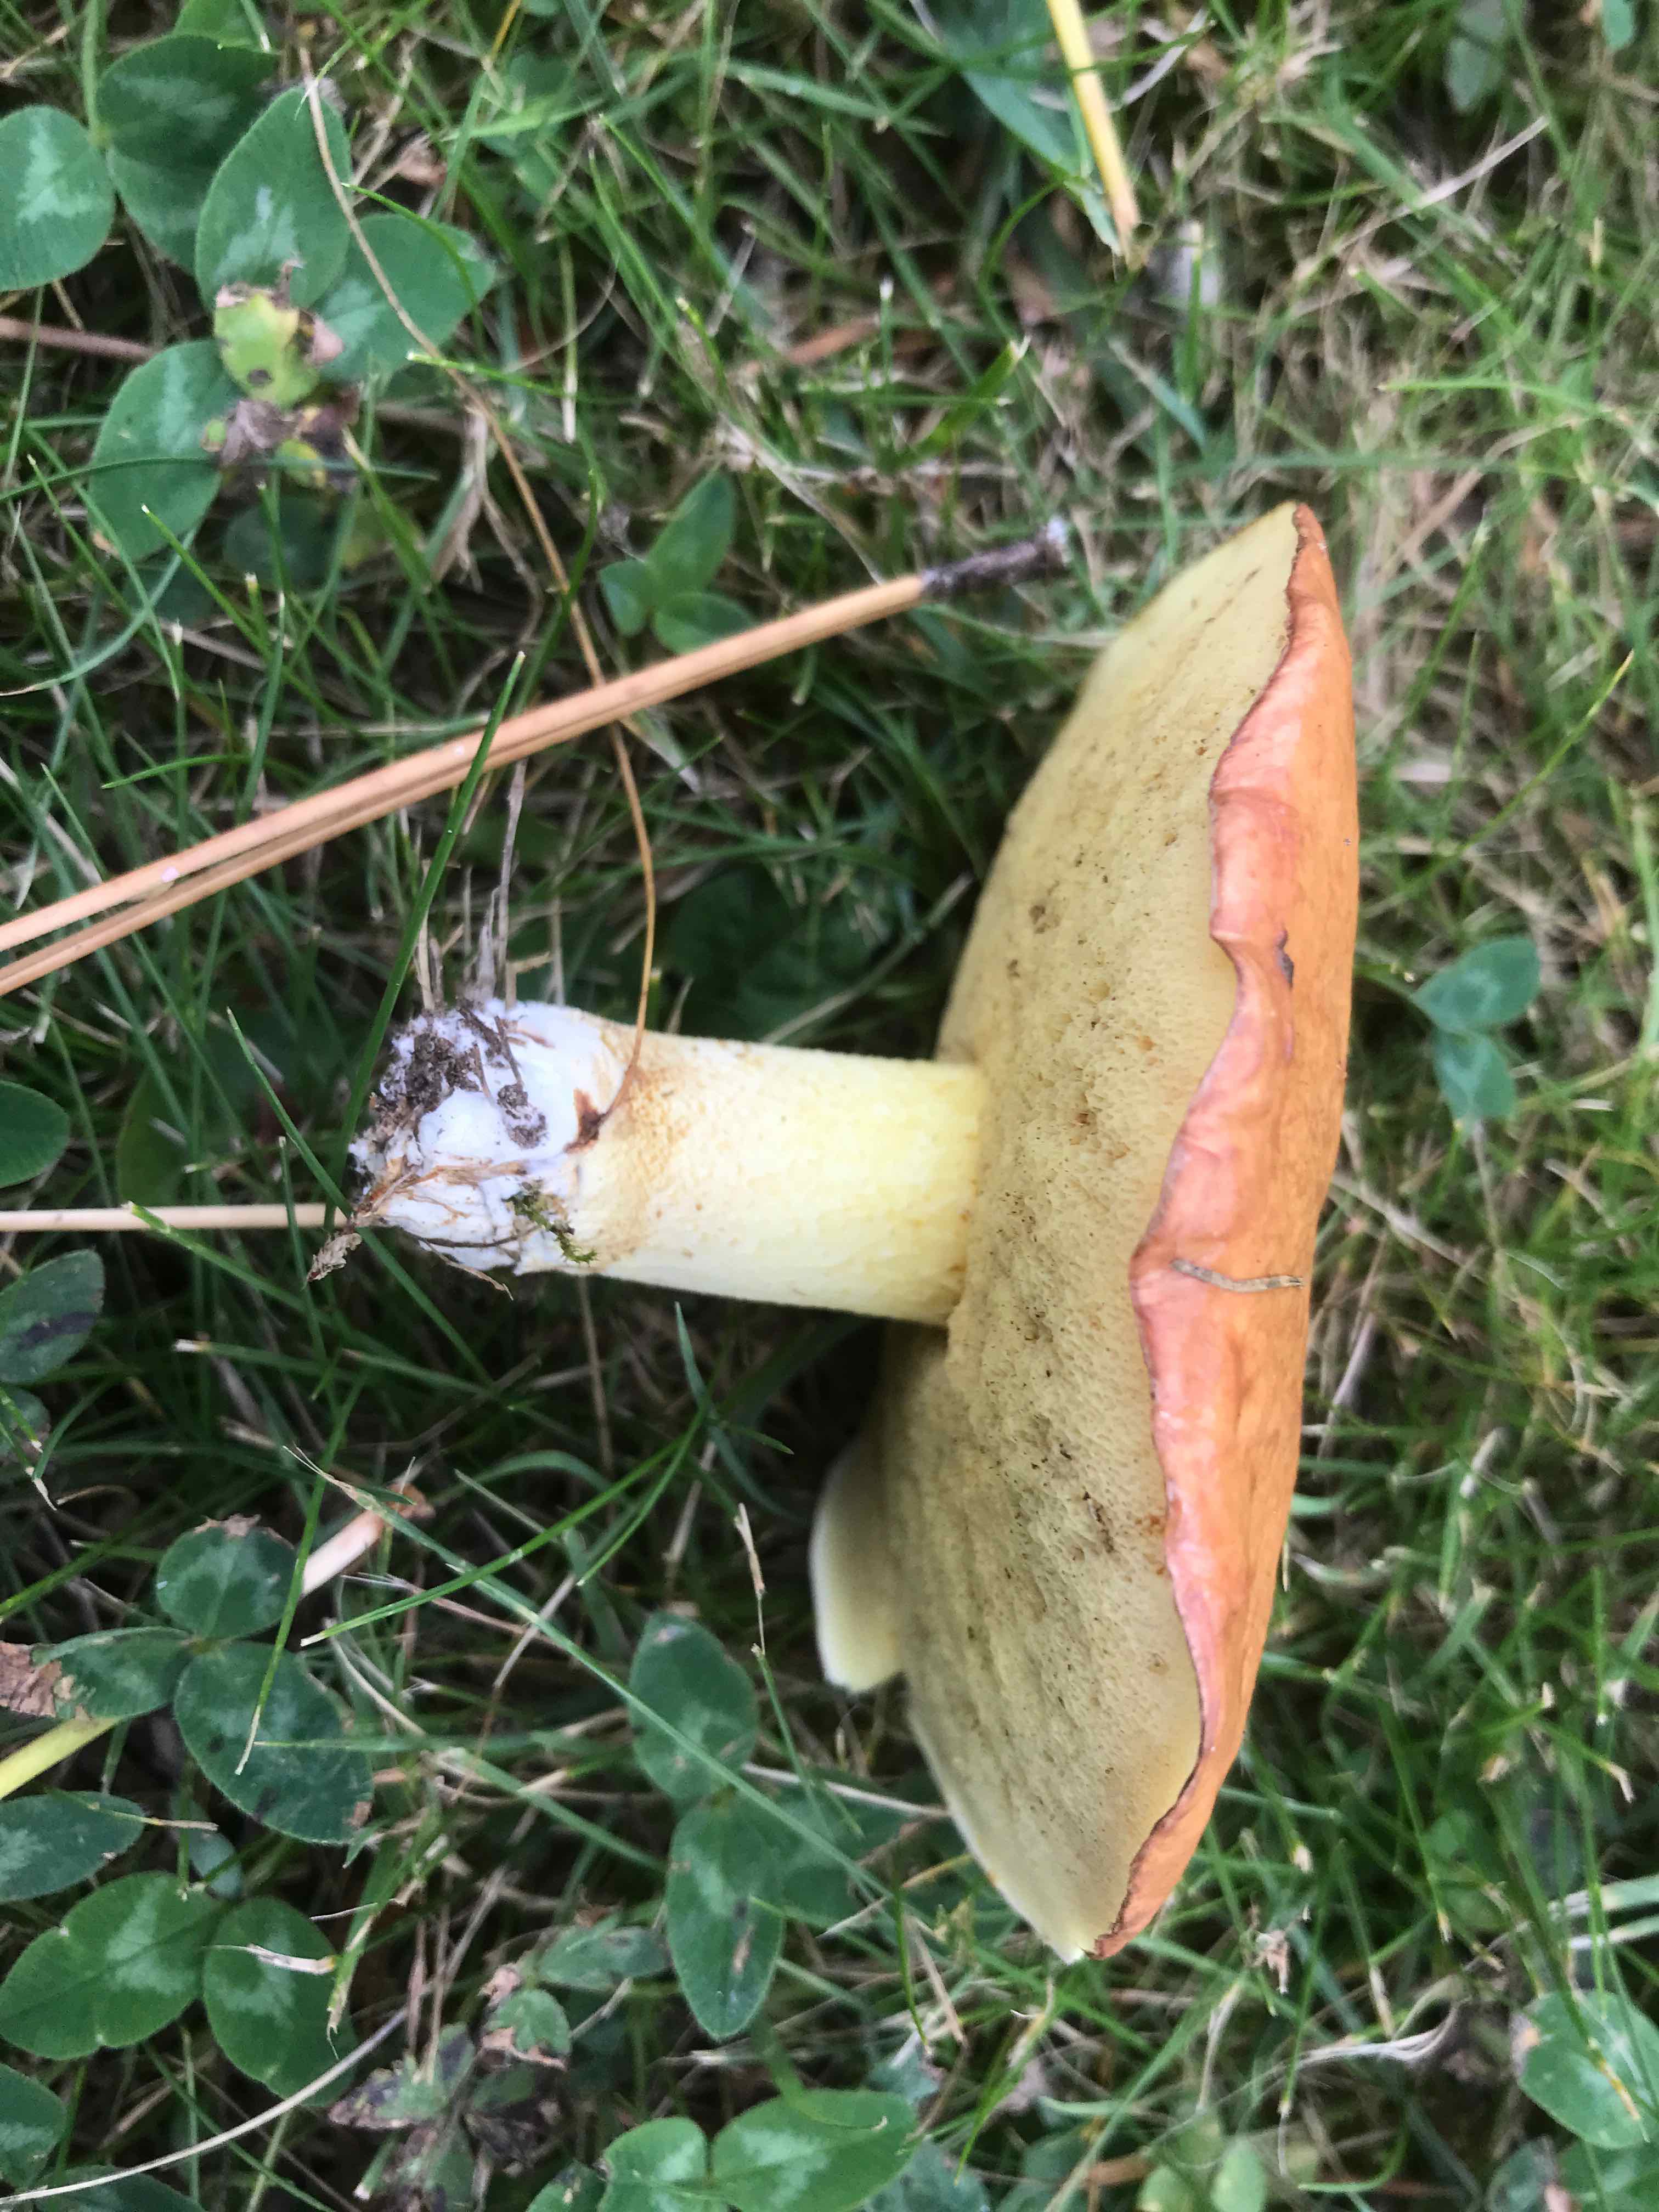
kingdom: Fungi
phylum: Basidiomycota
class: Agaricomycetes
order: Boletales
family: Suillaceae
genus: Suillus
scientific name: Suillus granulatus
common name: kornet slimrørhat
